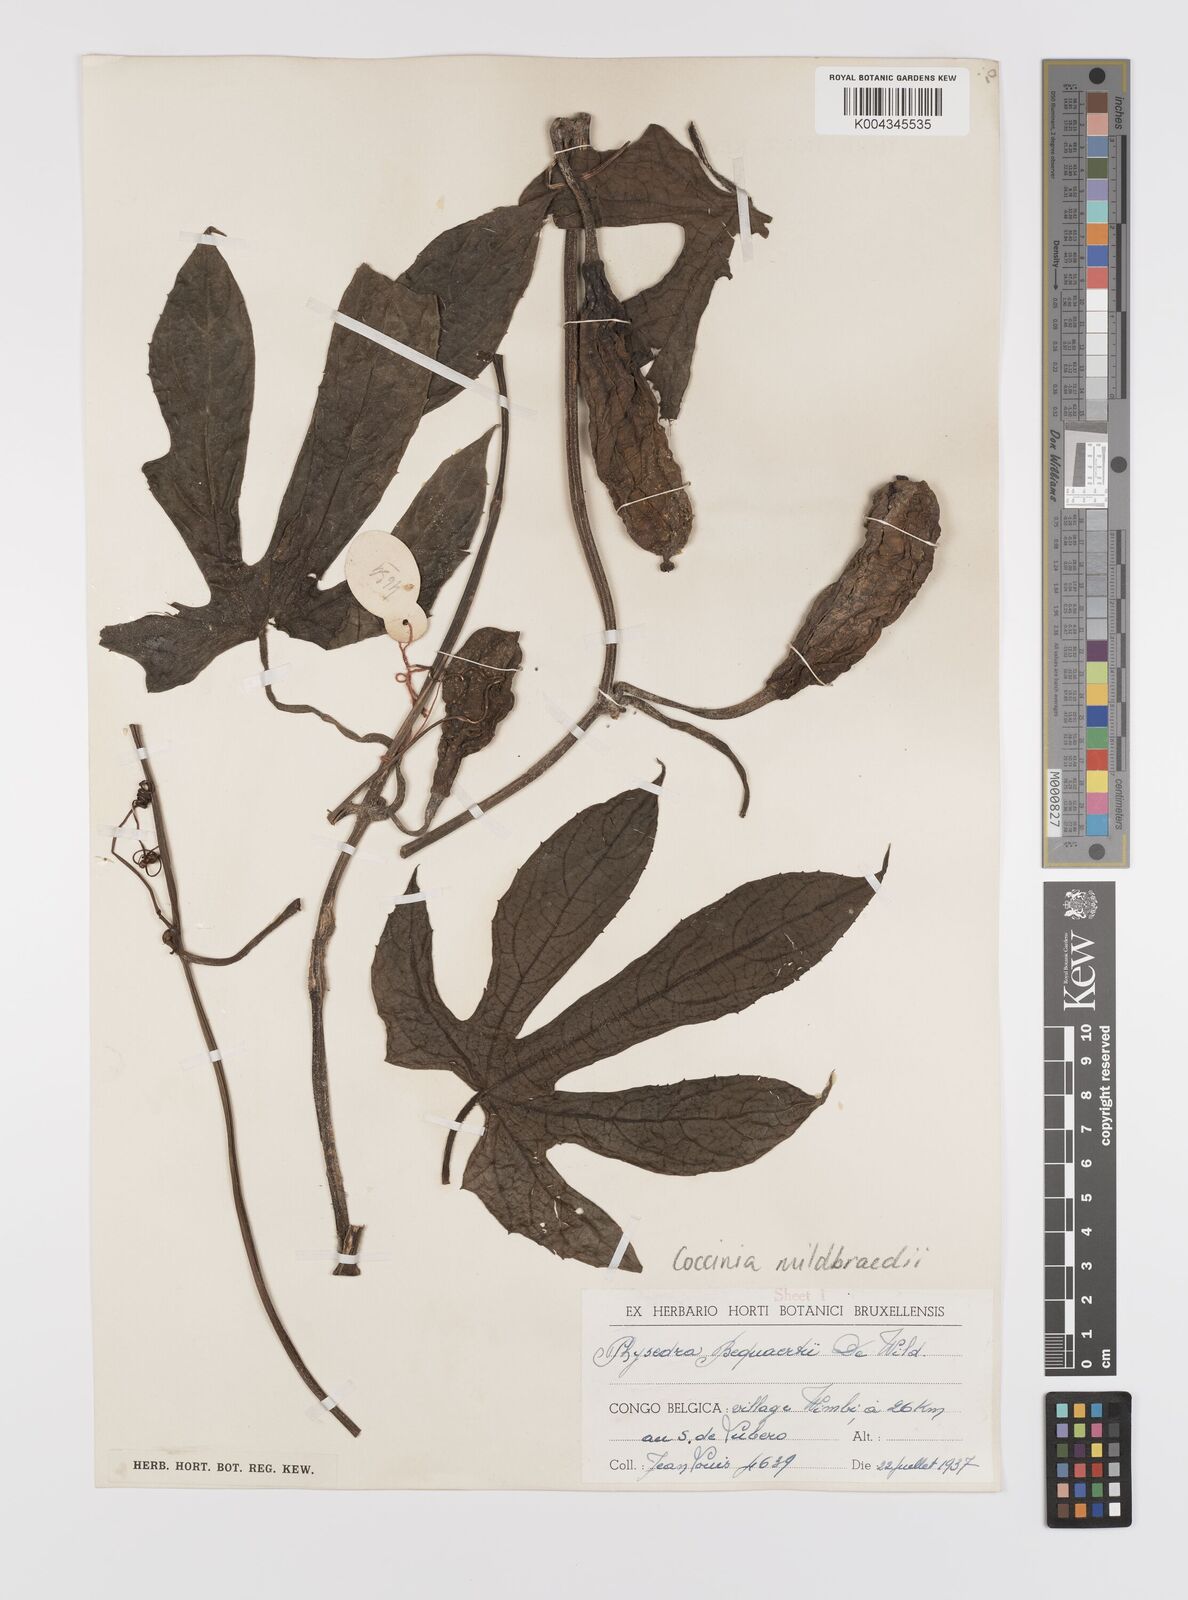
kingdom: Plantae
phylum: Tracheophyta
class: Magnoliopsida
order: Cucurbitales
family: Cucurbitaceae
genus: Coccinia
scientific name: Coccinia mildbraedii
